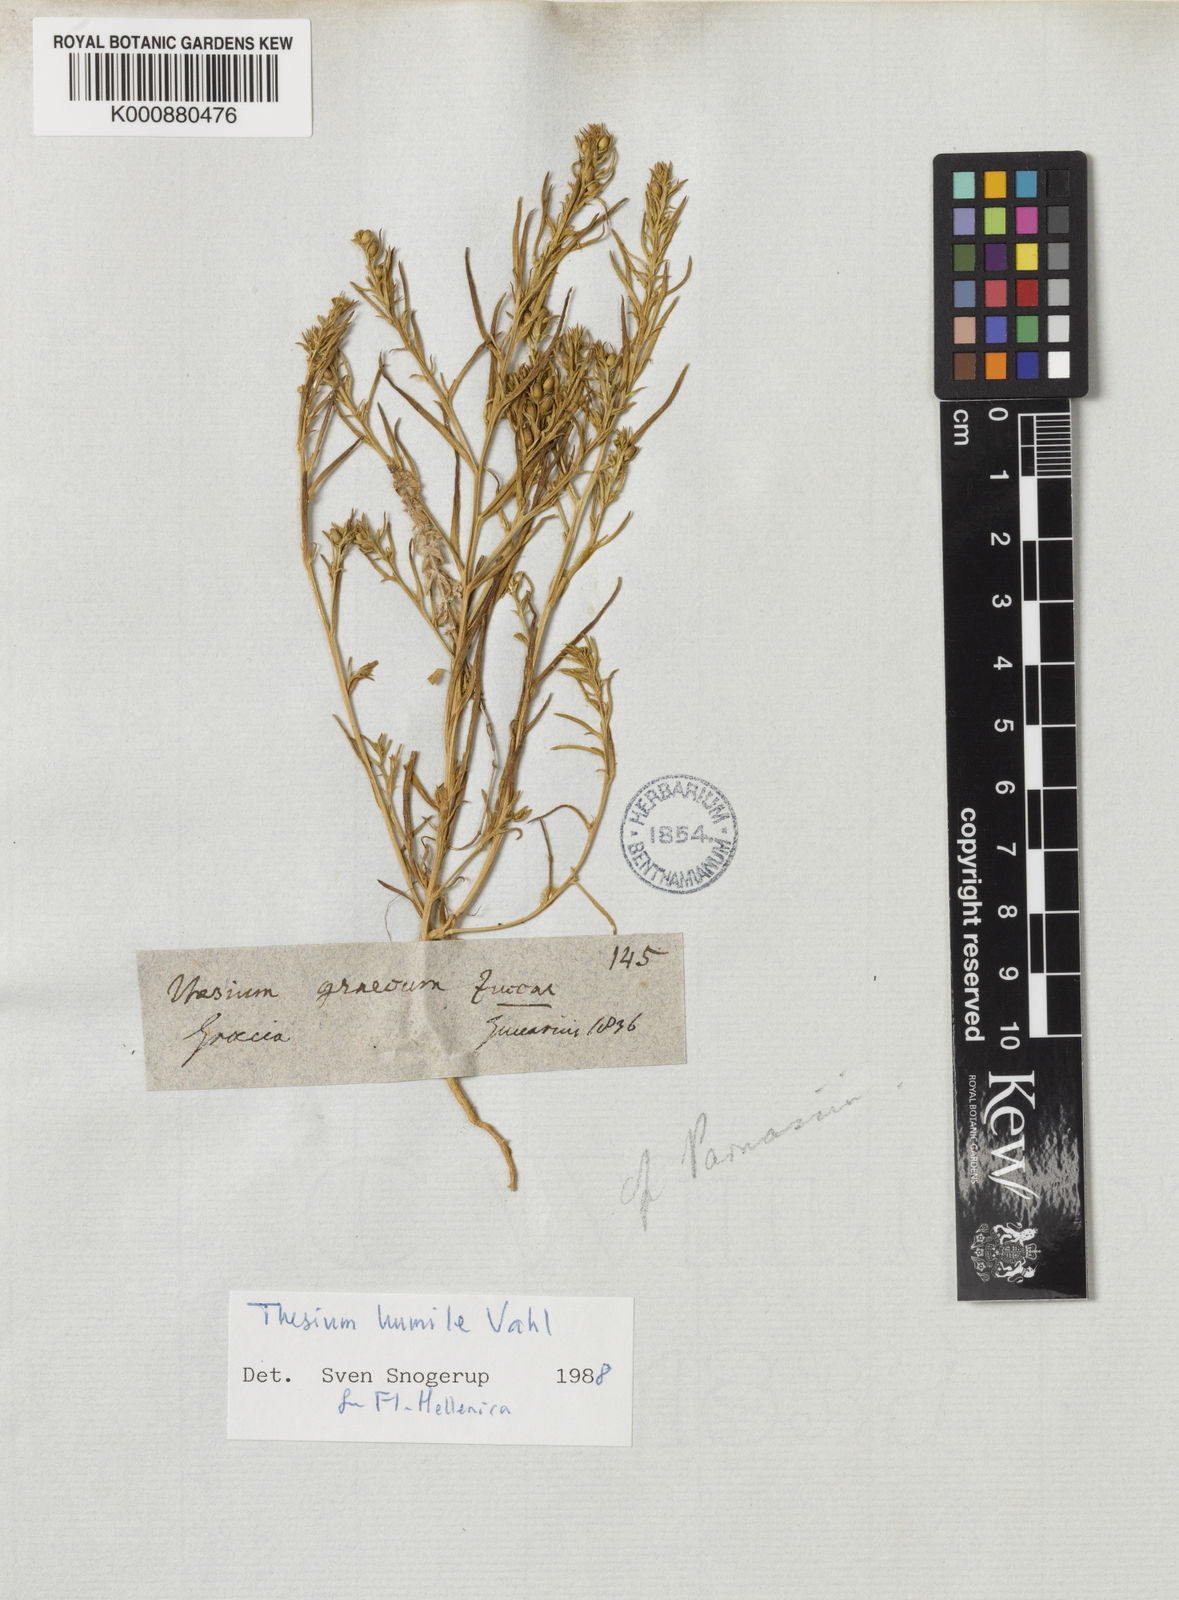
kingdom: Plantae
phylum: Tracheophyta
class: Magnoliopsida
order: Santalales
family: Thesiaceae
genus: Thesium
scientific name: Thesium humile
